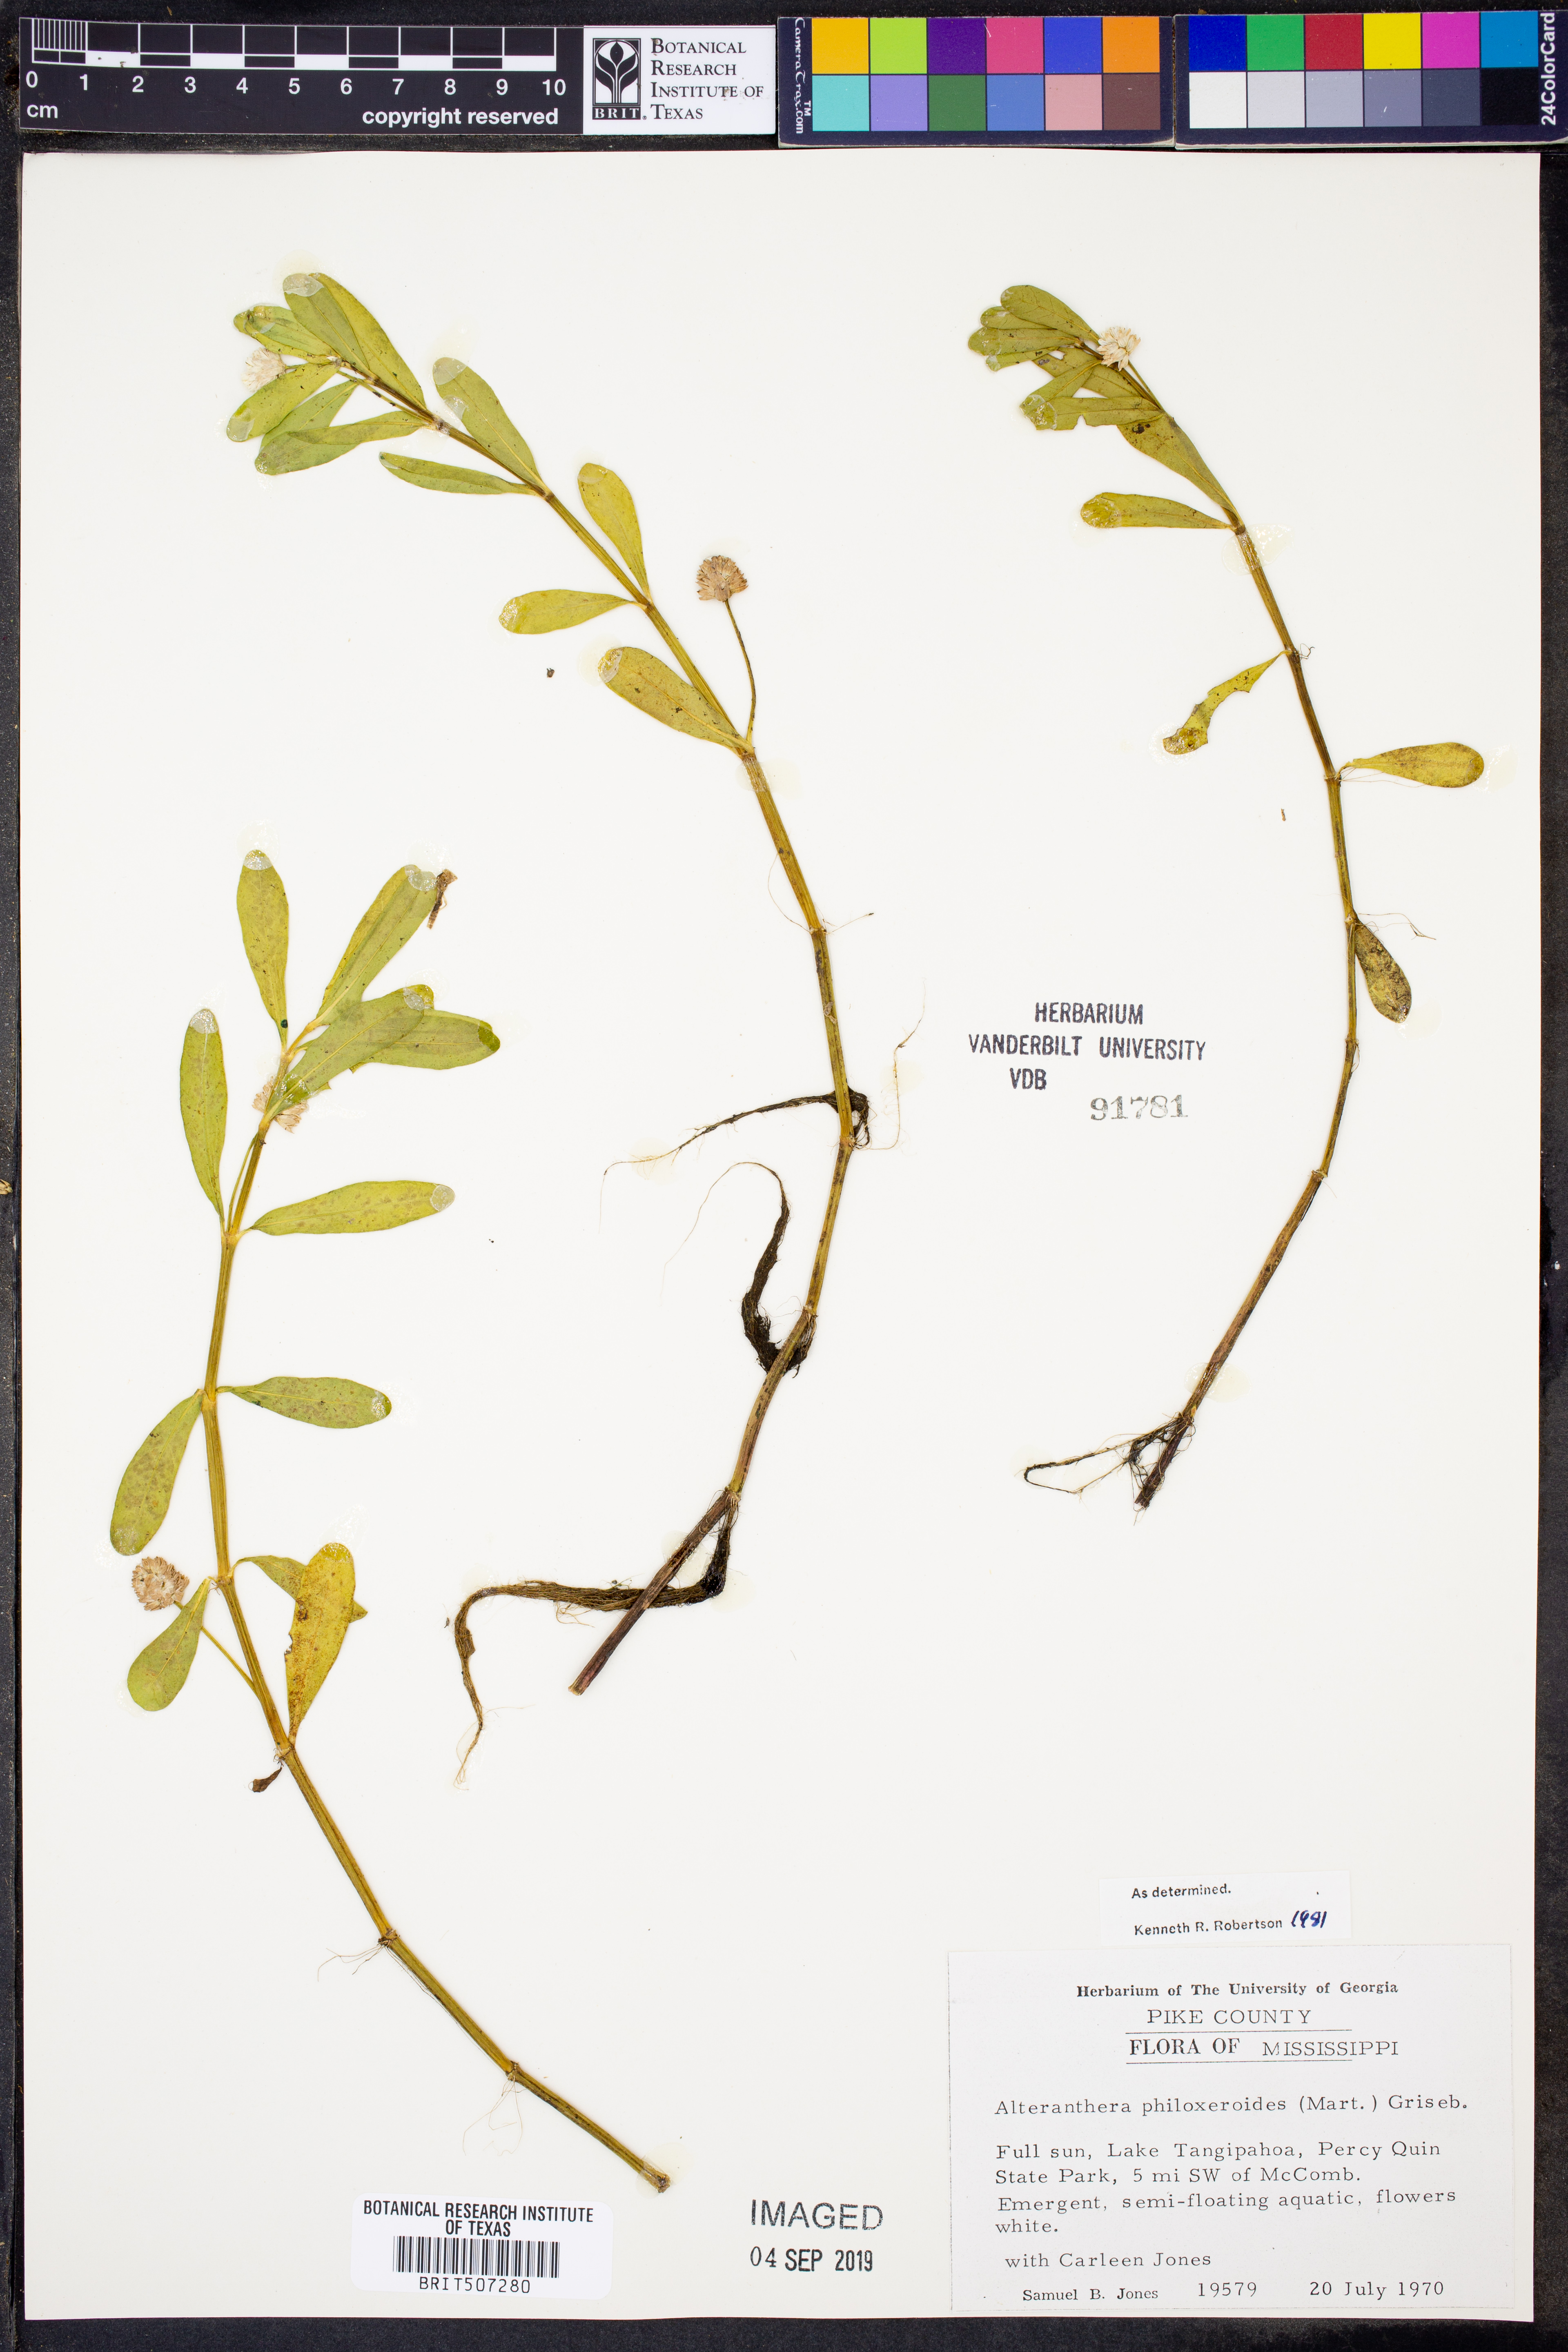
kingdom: Plantae
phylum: Tracheophyta
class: Magnoliopsida
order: Caryophyllales
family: Amaranthaceae
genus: Alternanthera
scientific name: Alternanthera philoxeroides
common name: Alligatorweed
